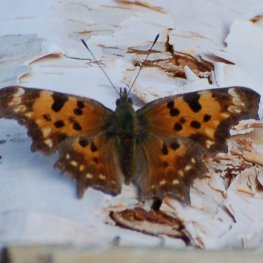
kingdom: Animalia
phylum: Arthropoda
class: Insecta
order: Lepidoptera
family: Nymphalidae
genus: Polygonia
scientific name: Polygonia faunus
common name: Green Comma
